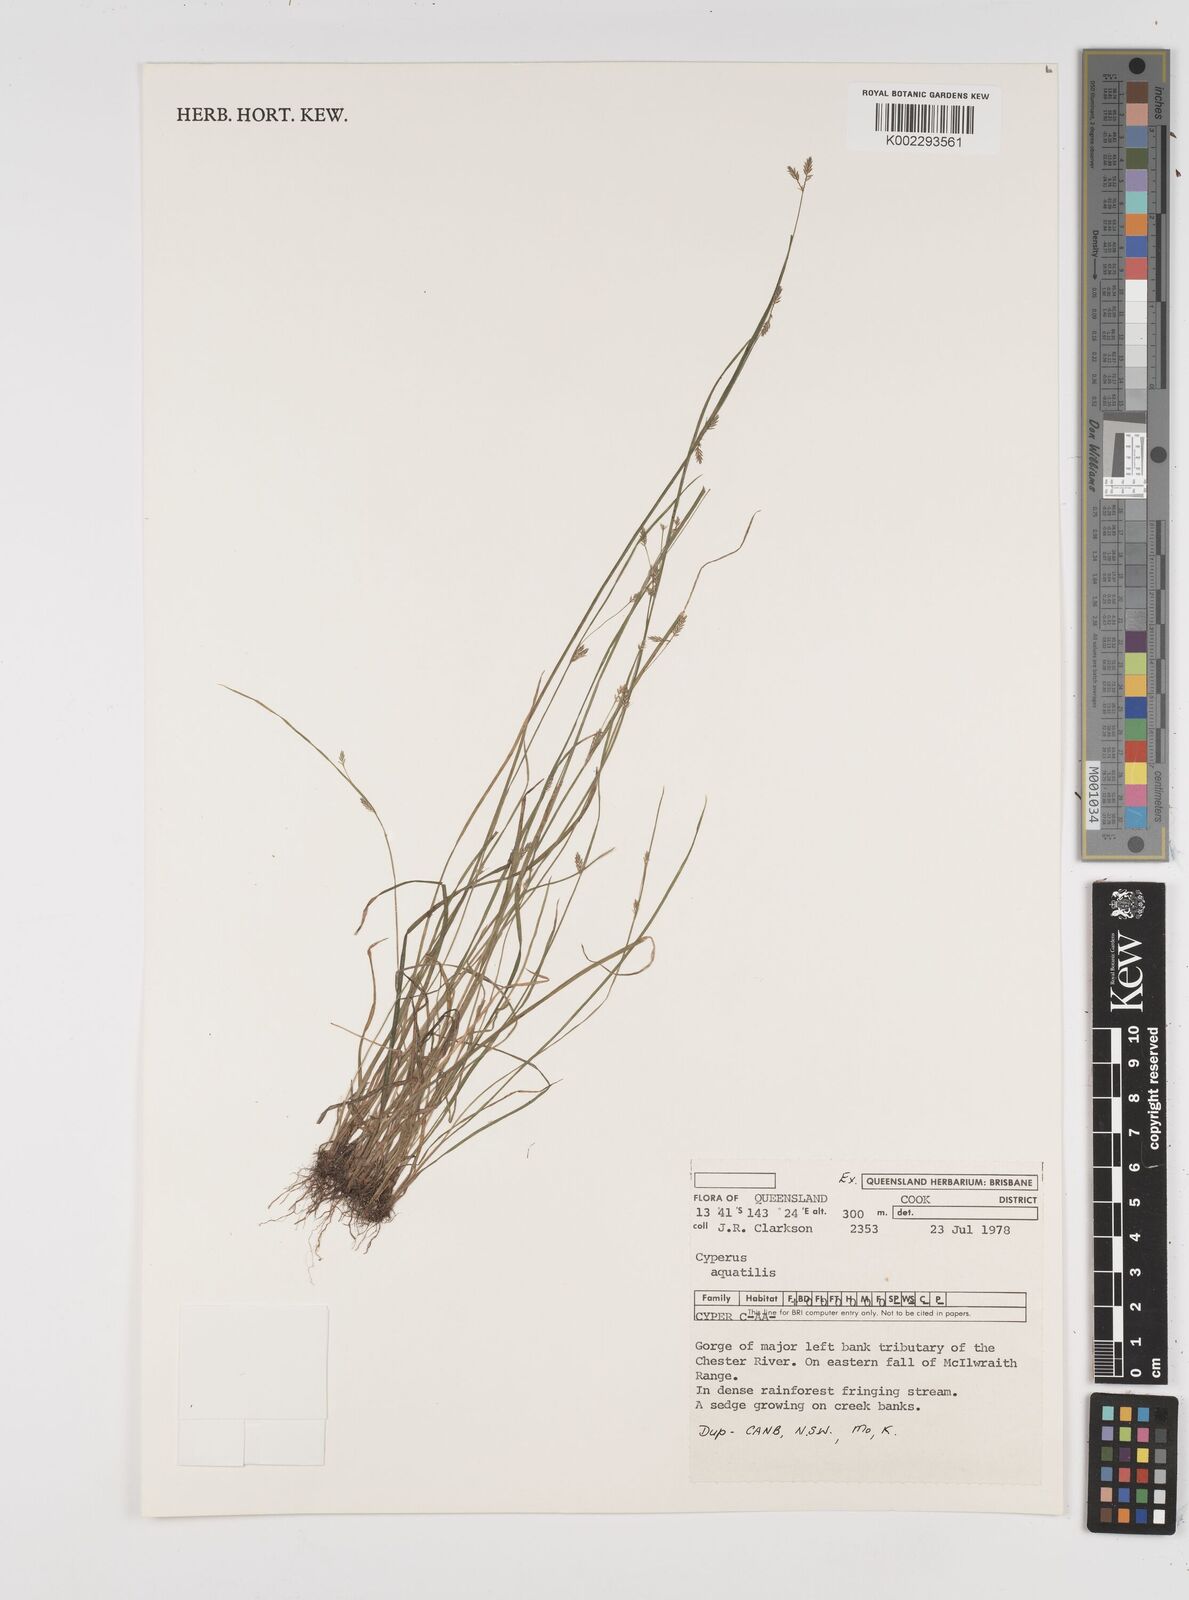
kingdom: Plantae
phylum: Tracheophyta
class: Liliopsida
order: Poales
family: Cyperaceae
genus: Cyperus
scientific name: Cyperus aquatilis
